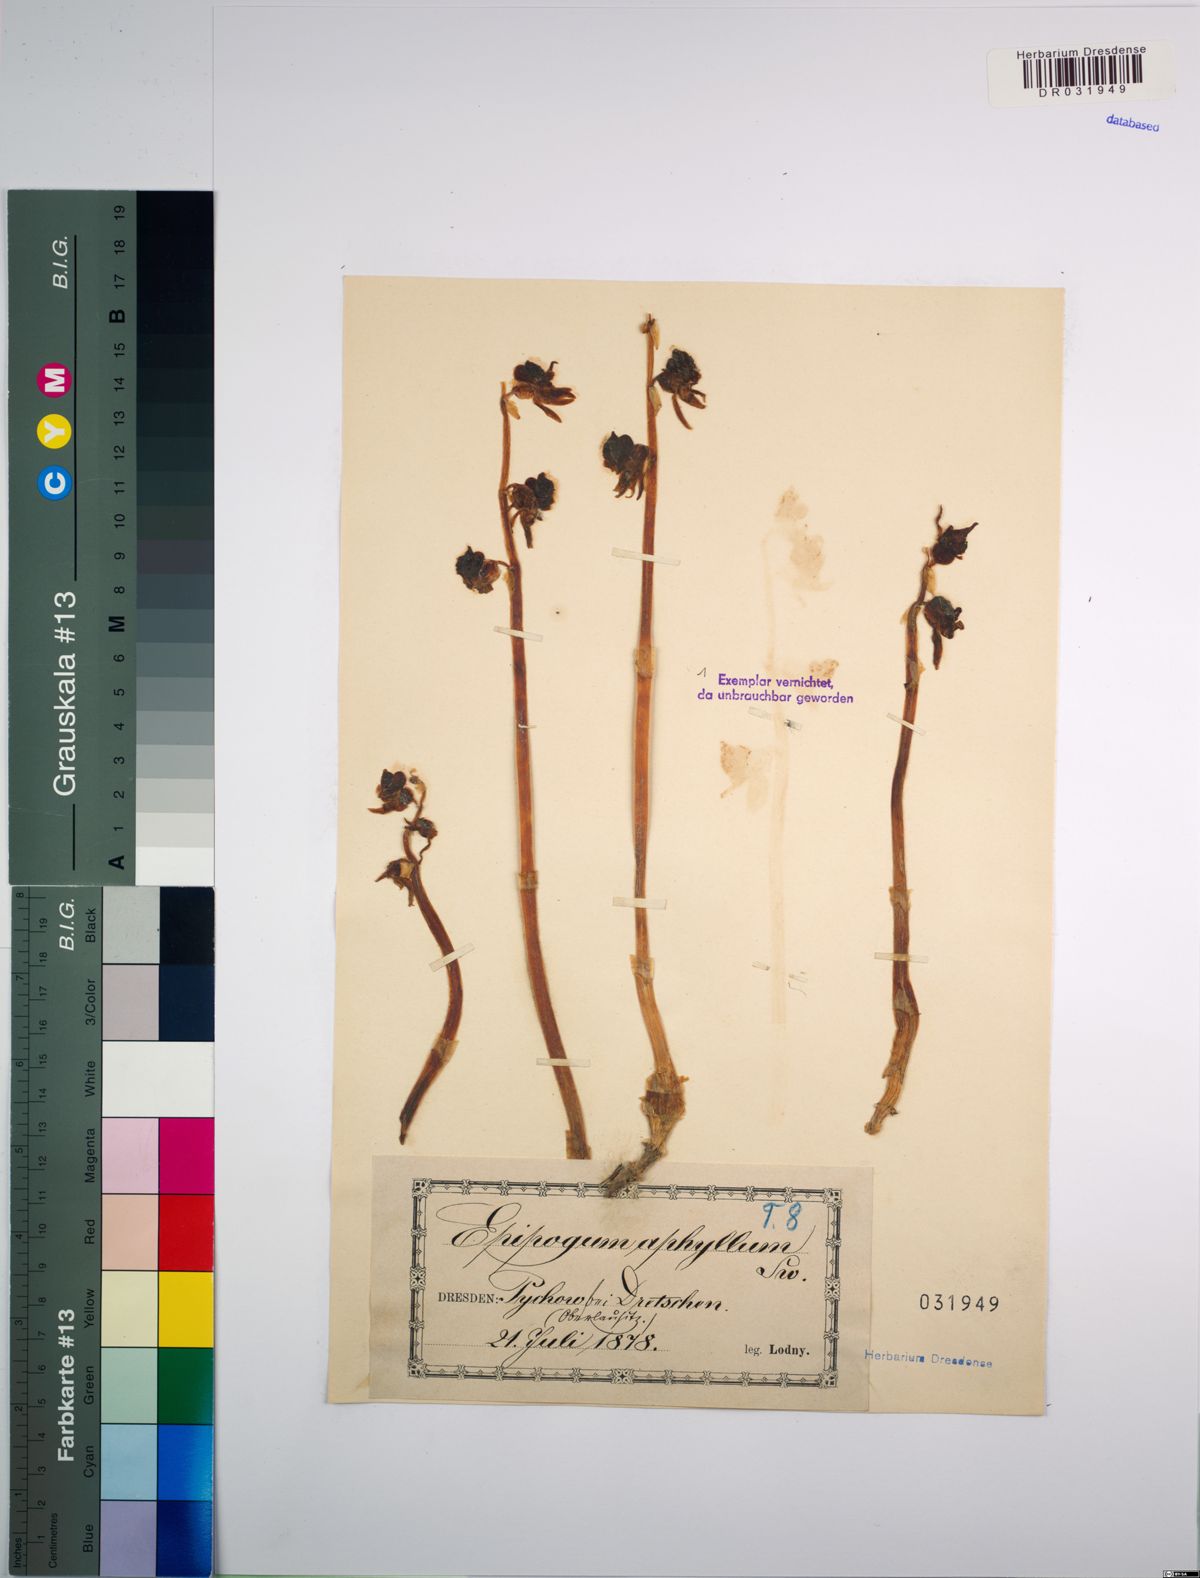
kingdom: Plantae
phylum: Tracheophyta
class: Liliopsida
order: Asparagales
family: Orchidaceae
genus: Epipogium
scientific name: Epipogium aphyllum
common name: Ghost orchid
